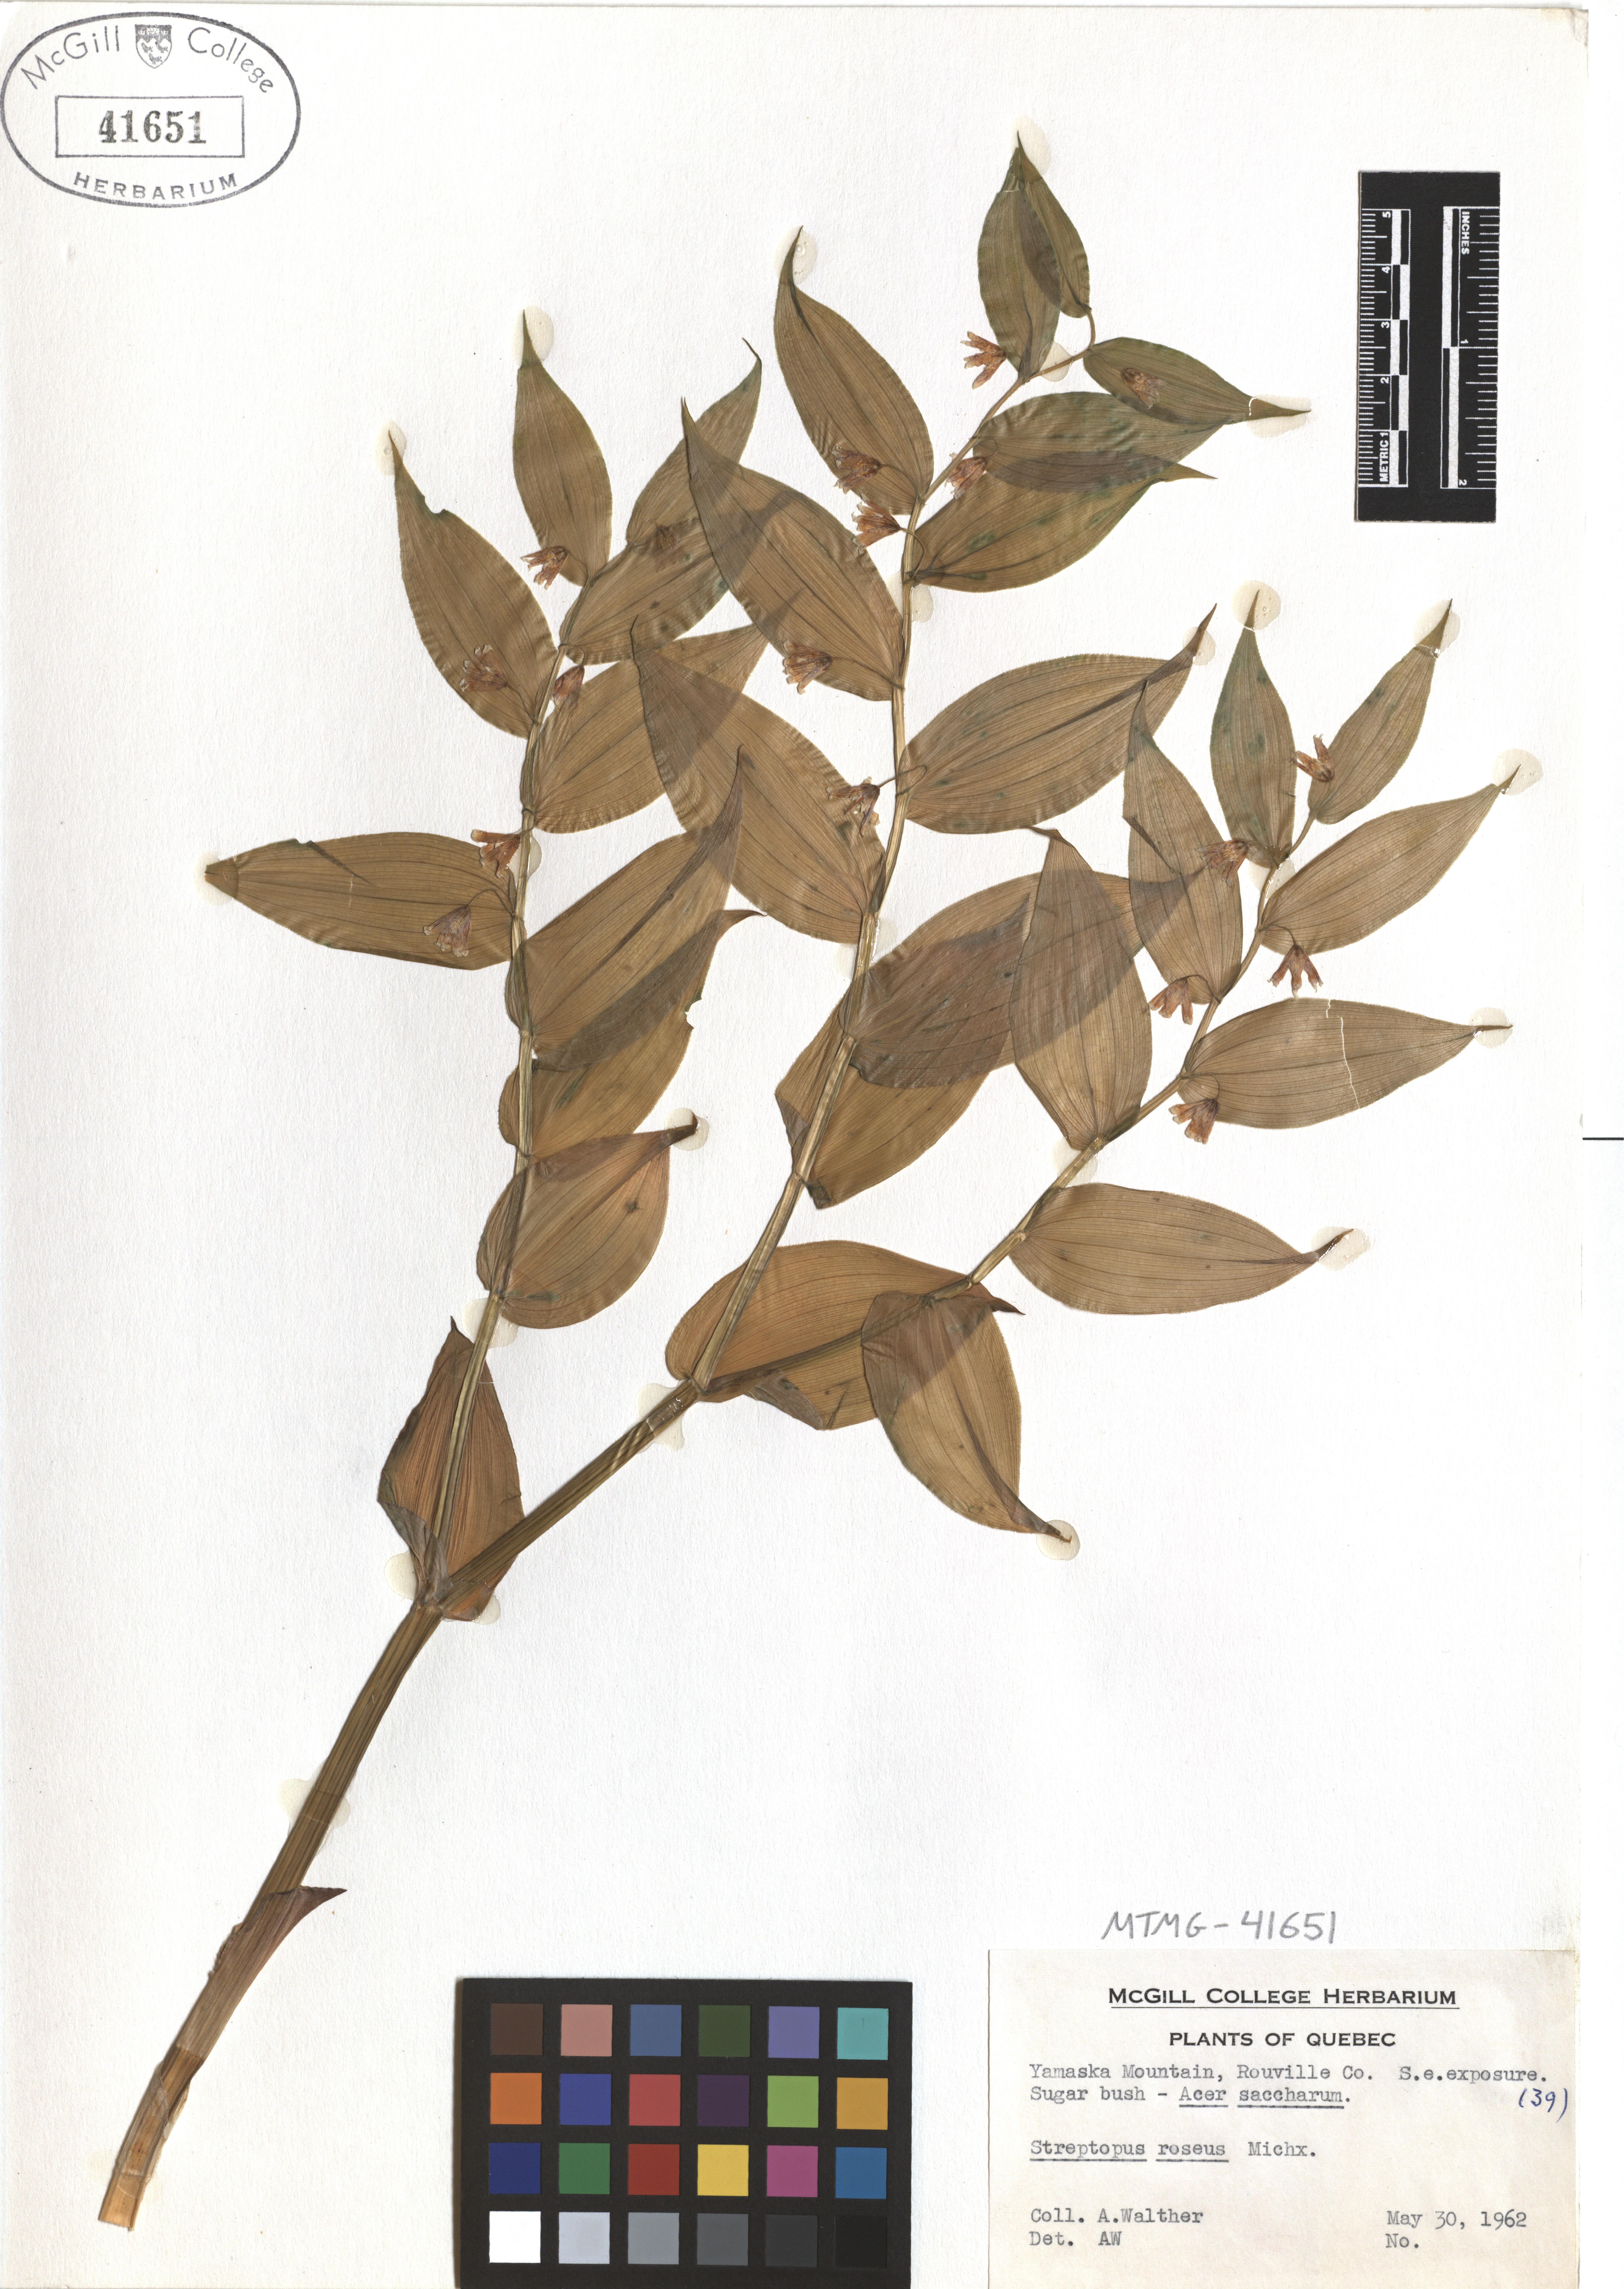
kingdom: Plantae
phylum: Tracheophyta
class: Liliopsida
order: Liliales
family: Liliaceae
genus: Streptopus
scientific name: Streptopus lanceolatus
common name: Rose mandarin
